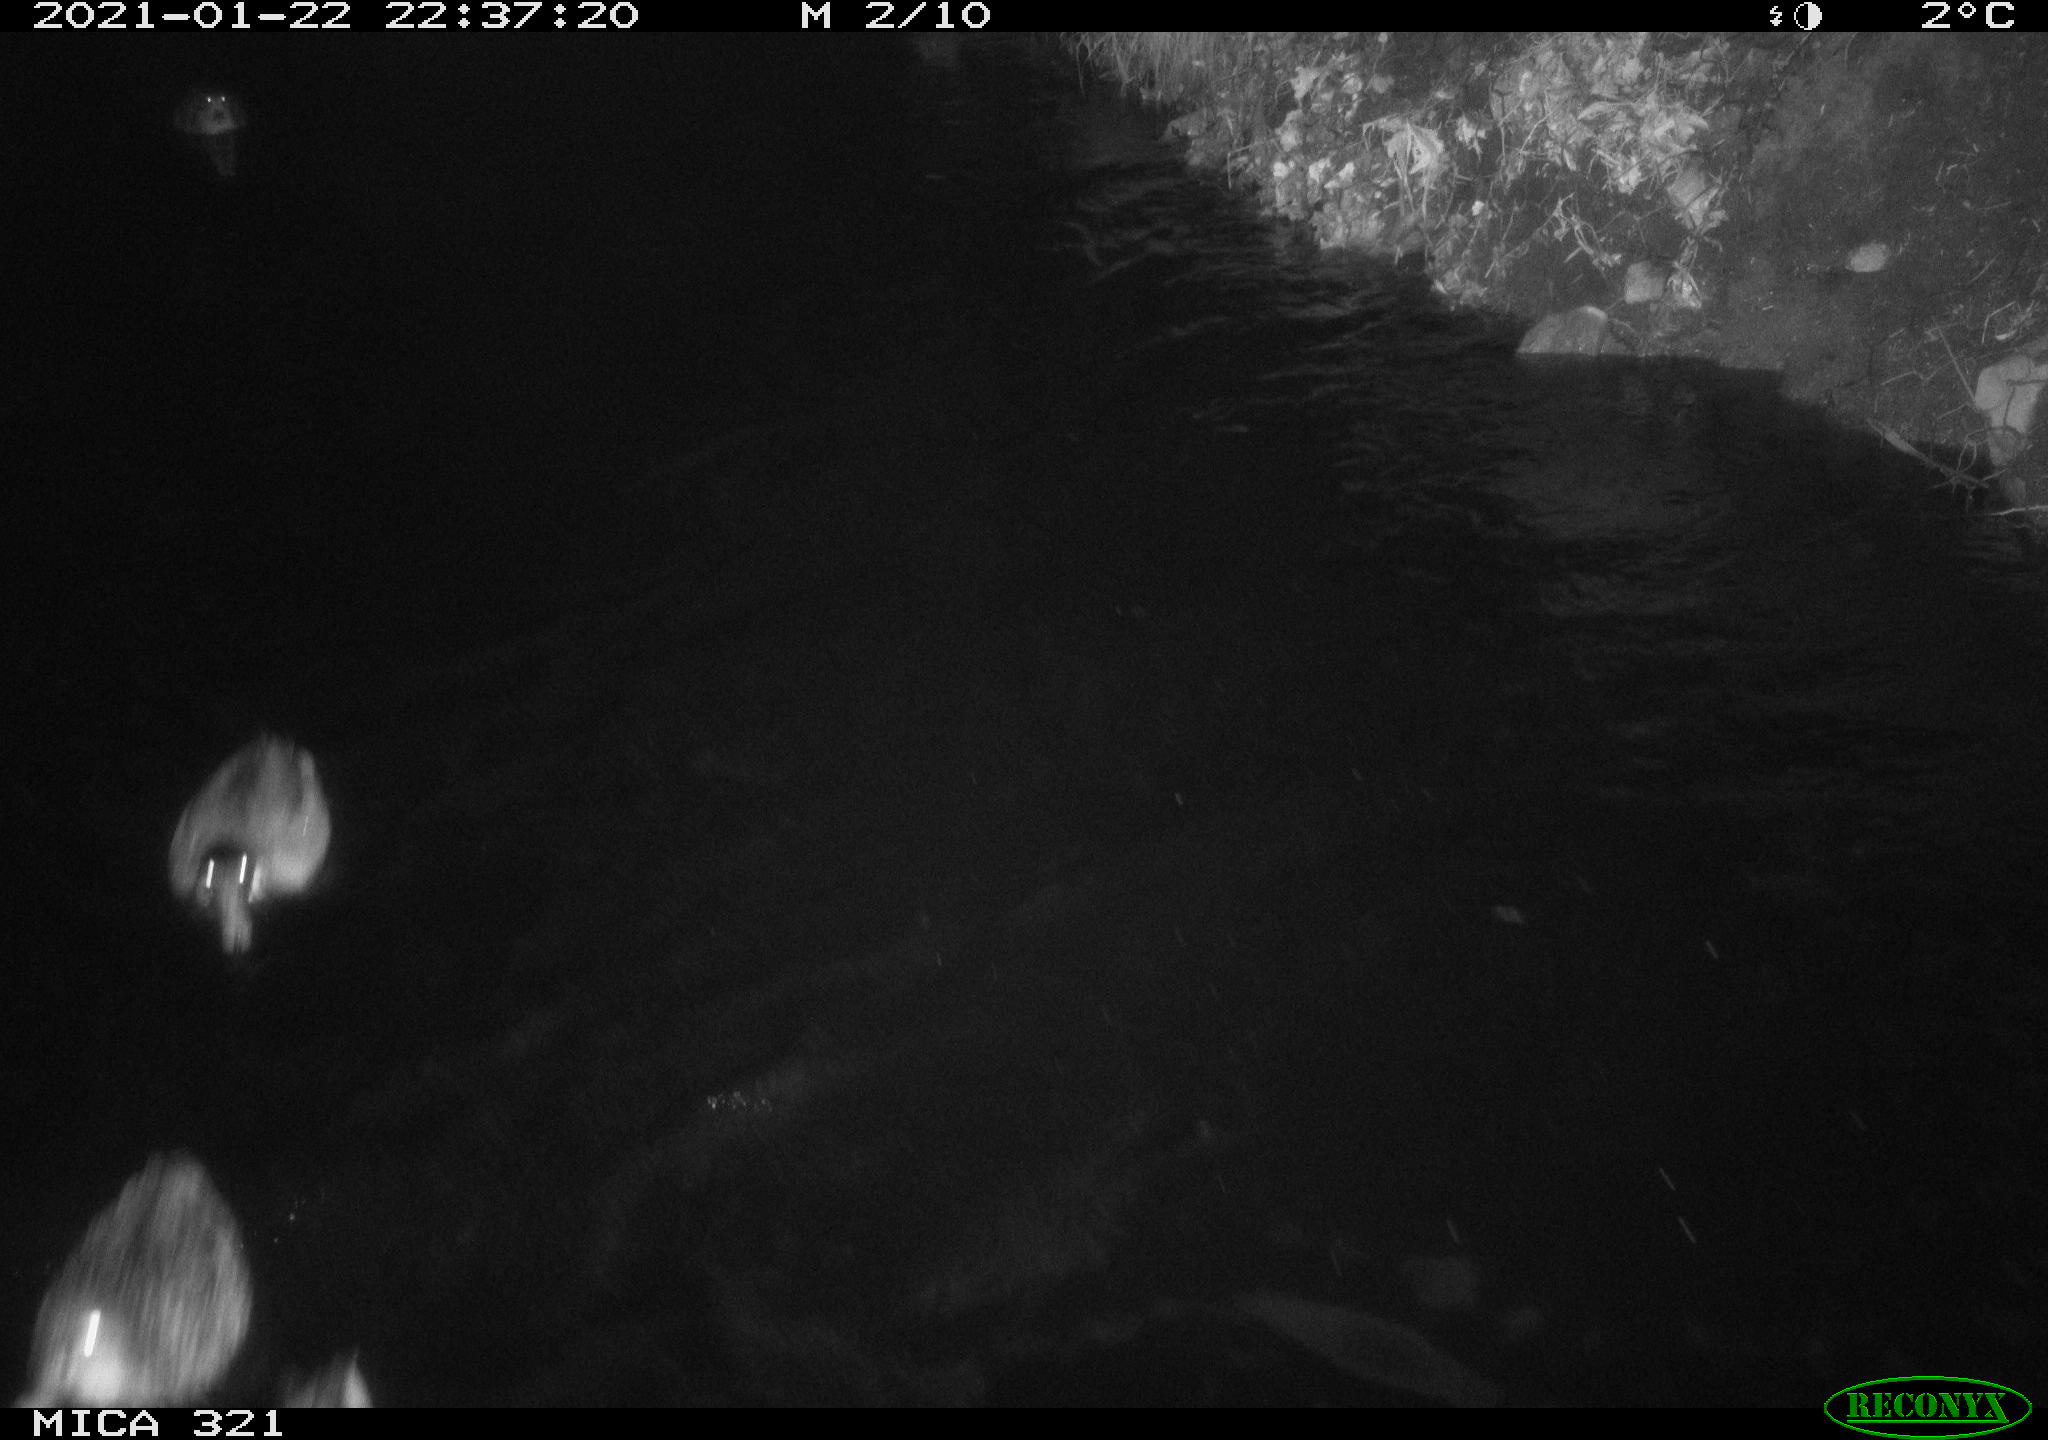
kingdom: Animalia
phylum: Chordata
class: Aves
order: Anseriformes
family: Anatidae
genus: Anas
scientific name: Anas platyrhynchos
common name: Mallard
